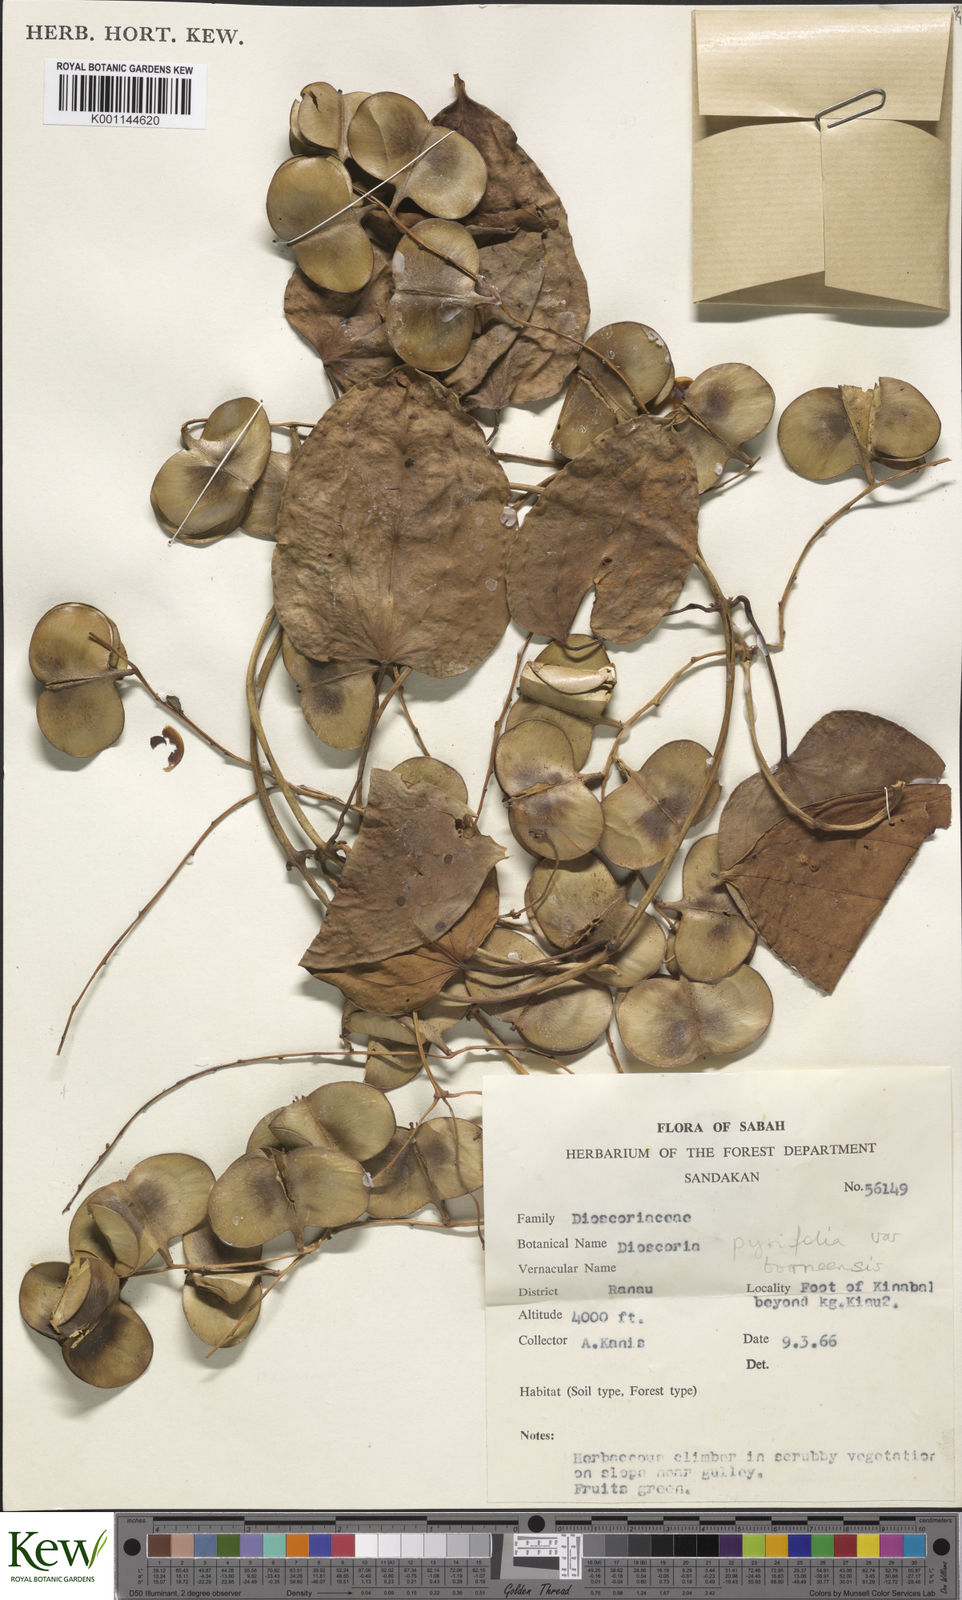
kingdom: Plantae
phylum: Tracheophyta
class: Liliopsida
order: Dioscoreales
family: Dioscoreaceae
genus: Dioscorea
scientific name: Dioscorea pyrifolia
